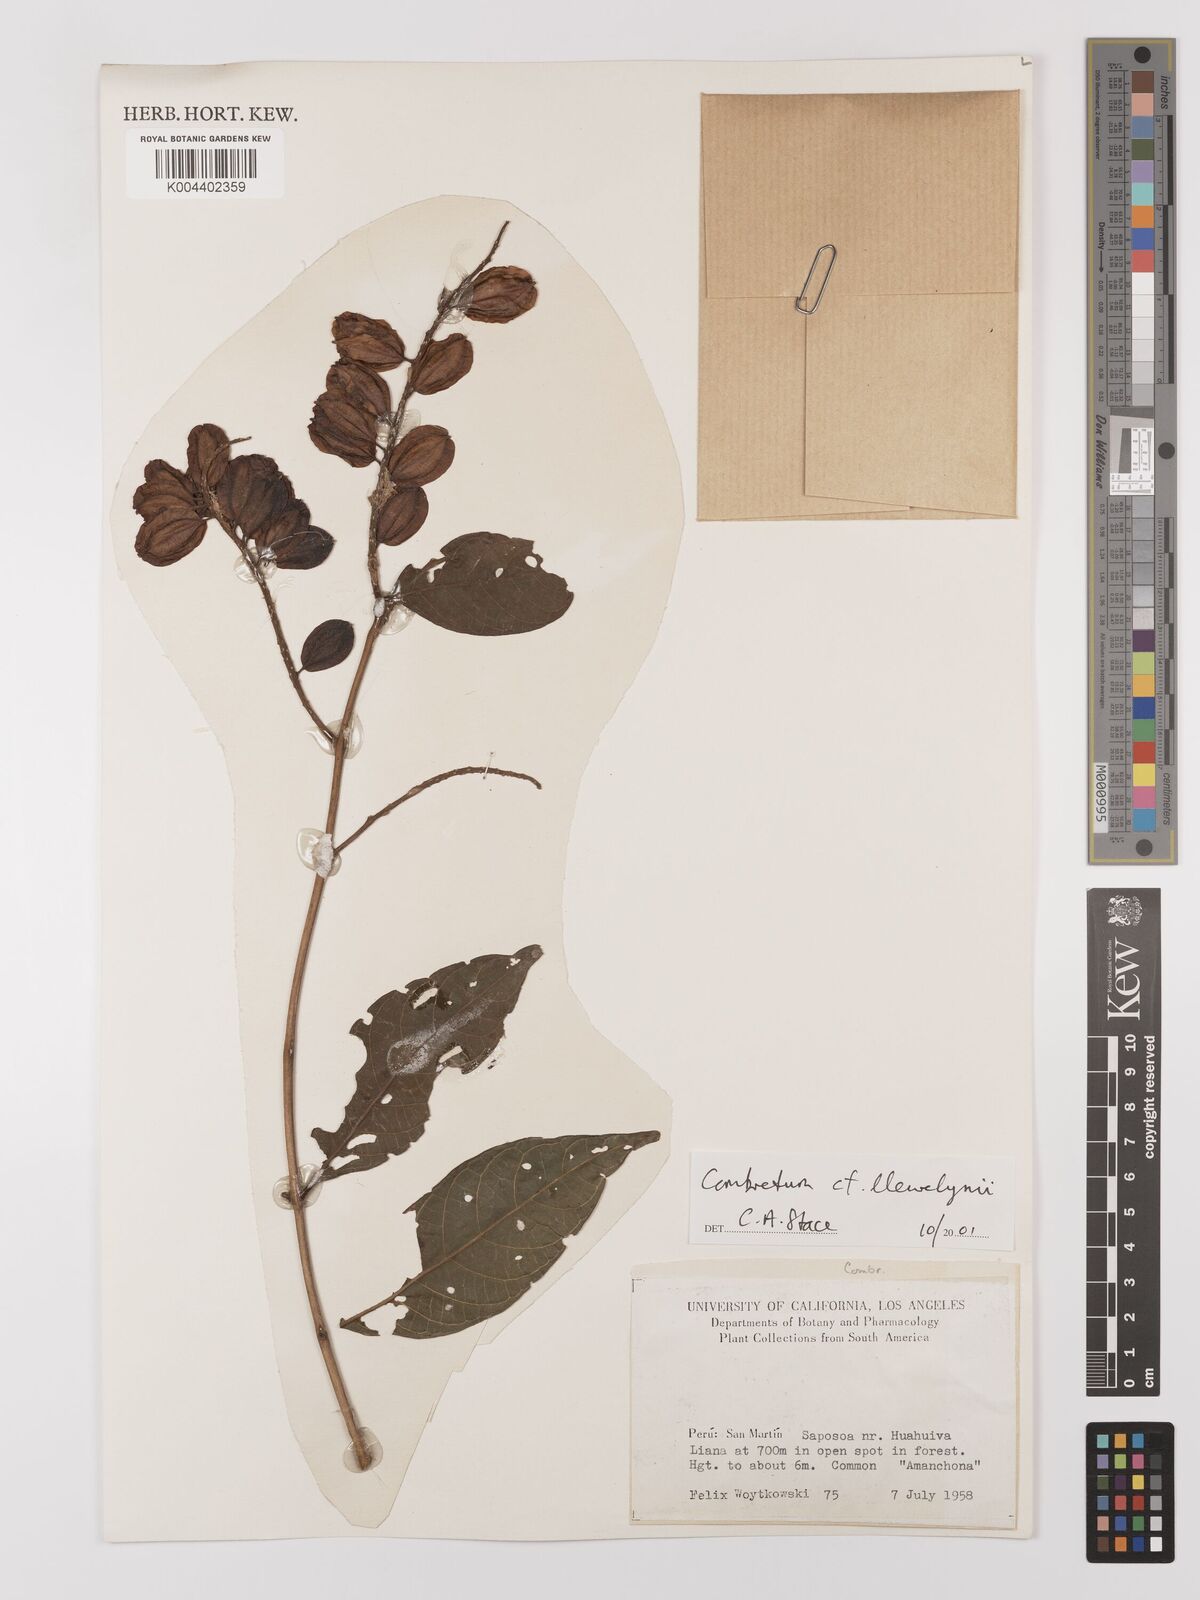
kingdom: Plantae
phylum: Tracheophyta
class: Magnoliopsida
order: Myrtales
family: Combretaceae
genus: Combretum
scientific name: Combretum llewelynii
